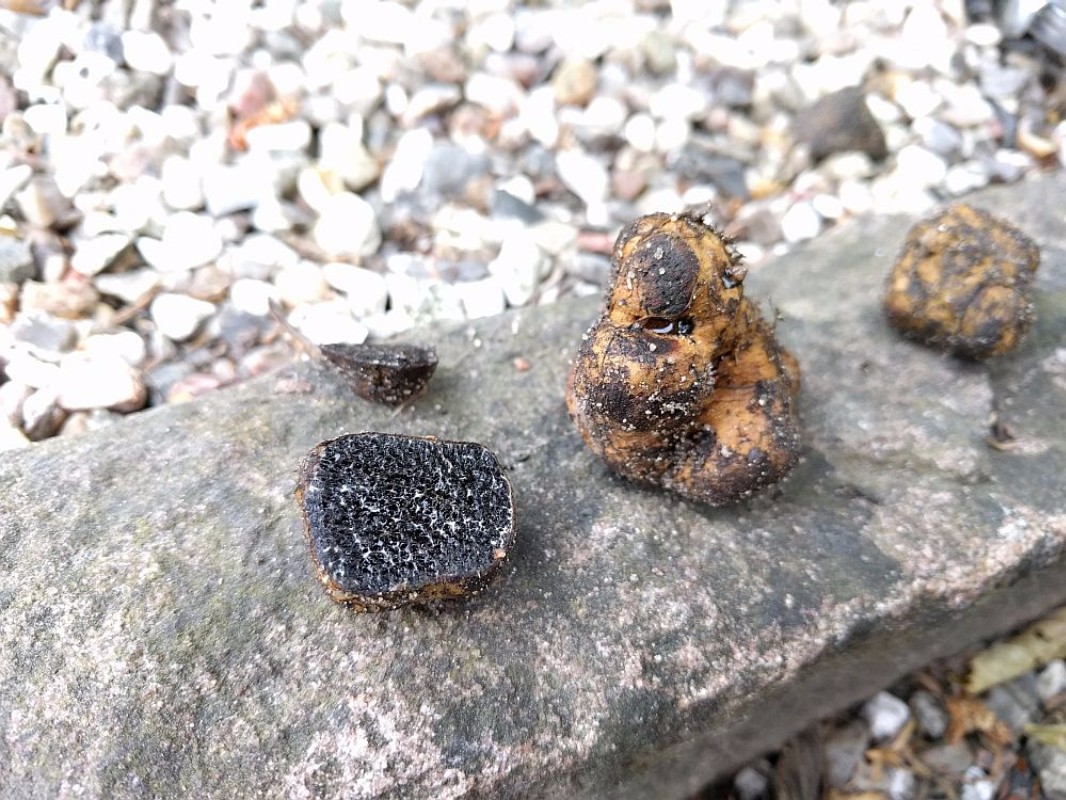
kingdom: Fungi
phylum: Basidiomycota
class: Agaricomycetes
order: Boletales
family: Paxillaceae
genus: Melanogaster
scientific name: Melanogaster broomeanus
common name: broget slimtrøffel
